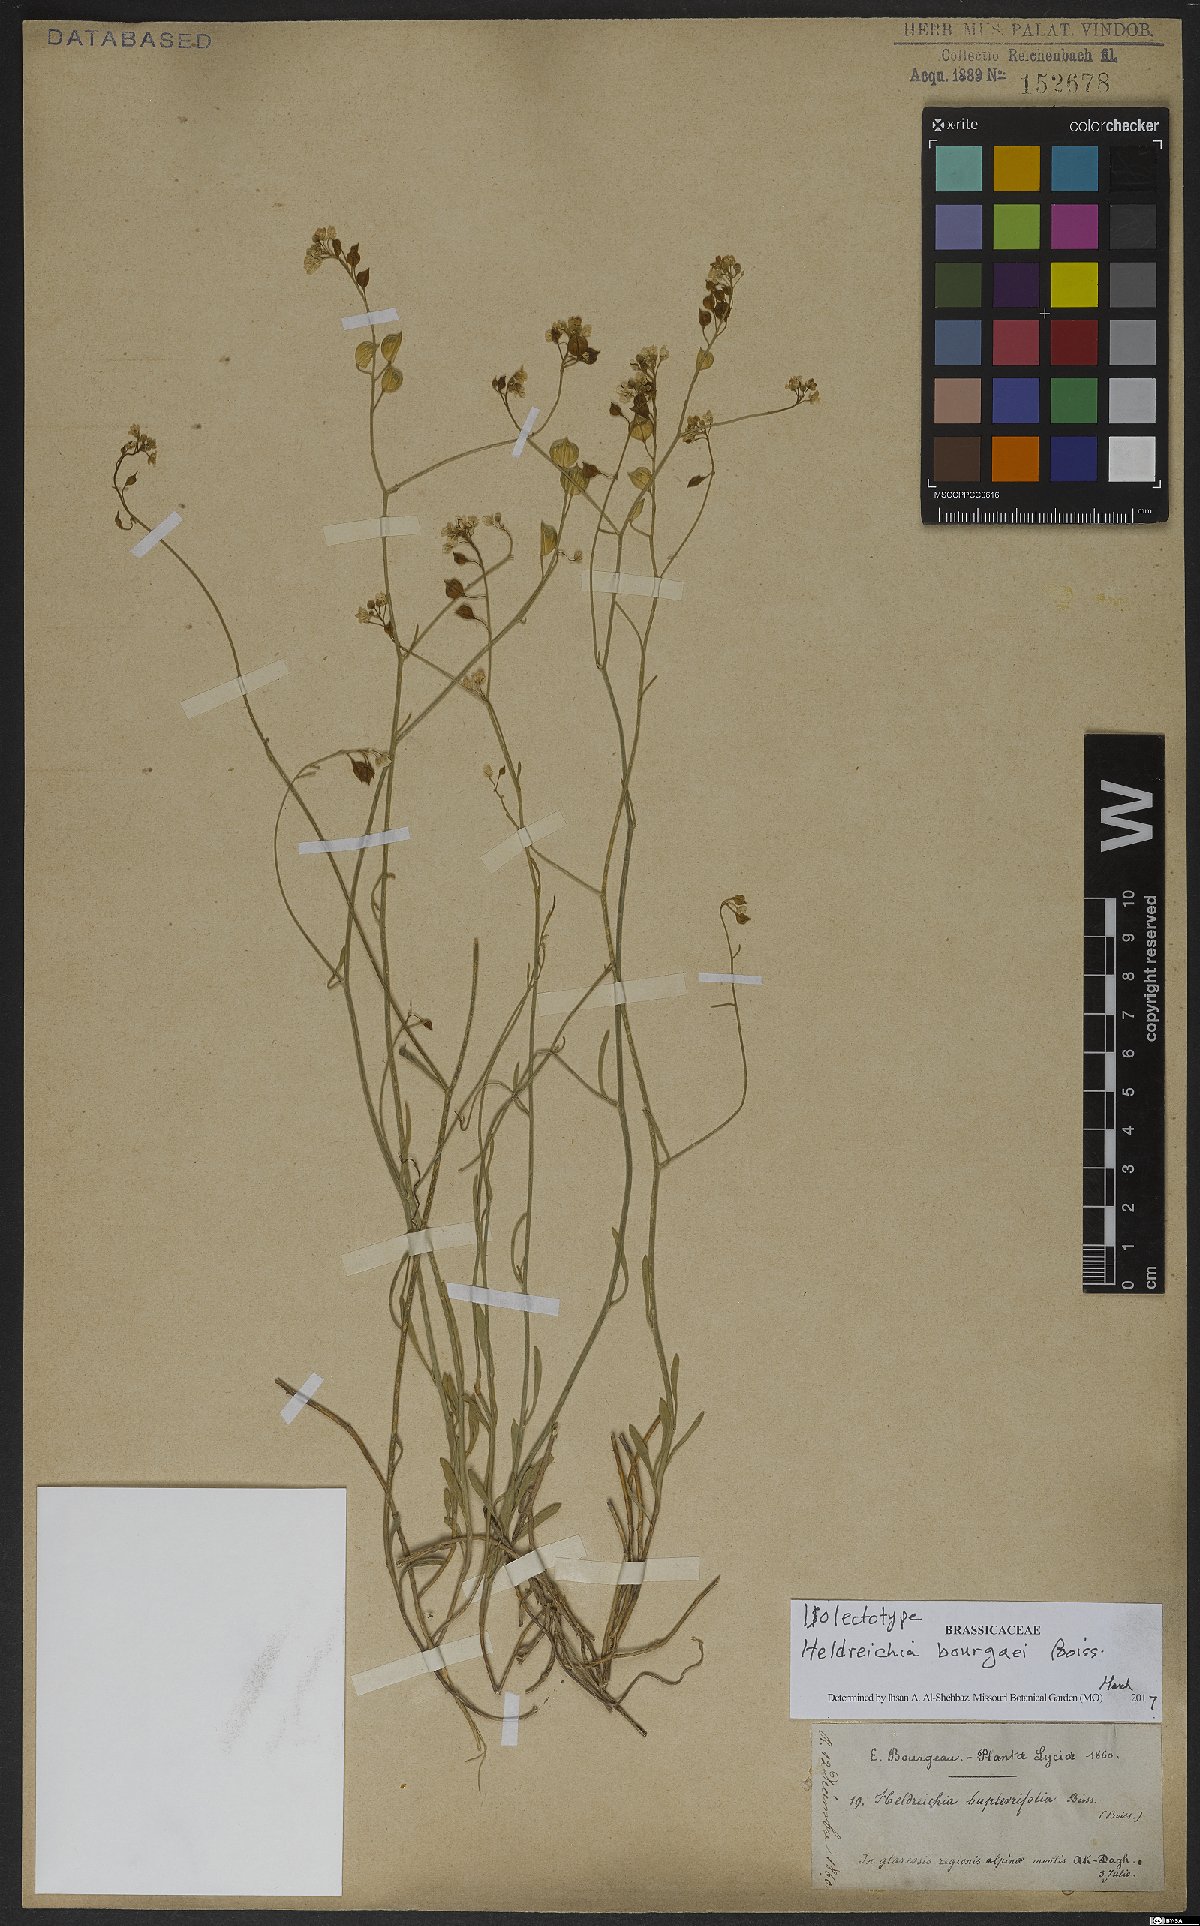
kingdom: Plantae
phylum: Tracheophyta
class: Magnoliopsida
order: Brassicales
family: Brassicaceae
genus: Heldreichia
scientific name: Heldreichia bupleurifolia
